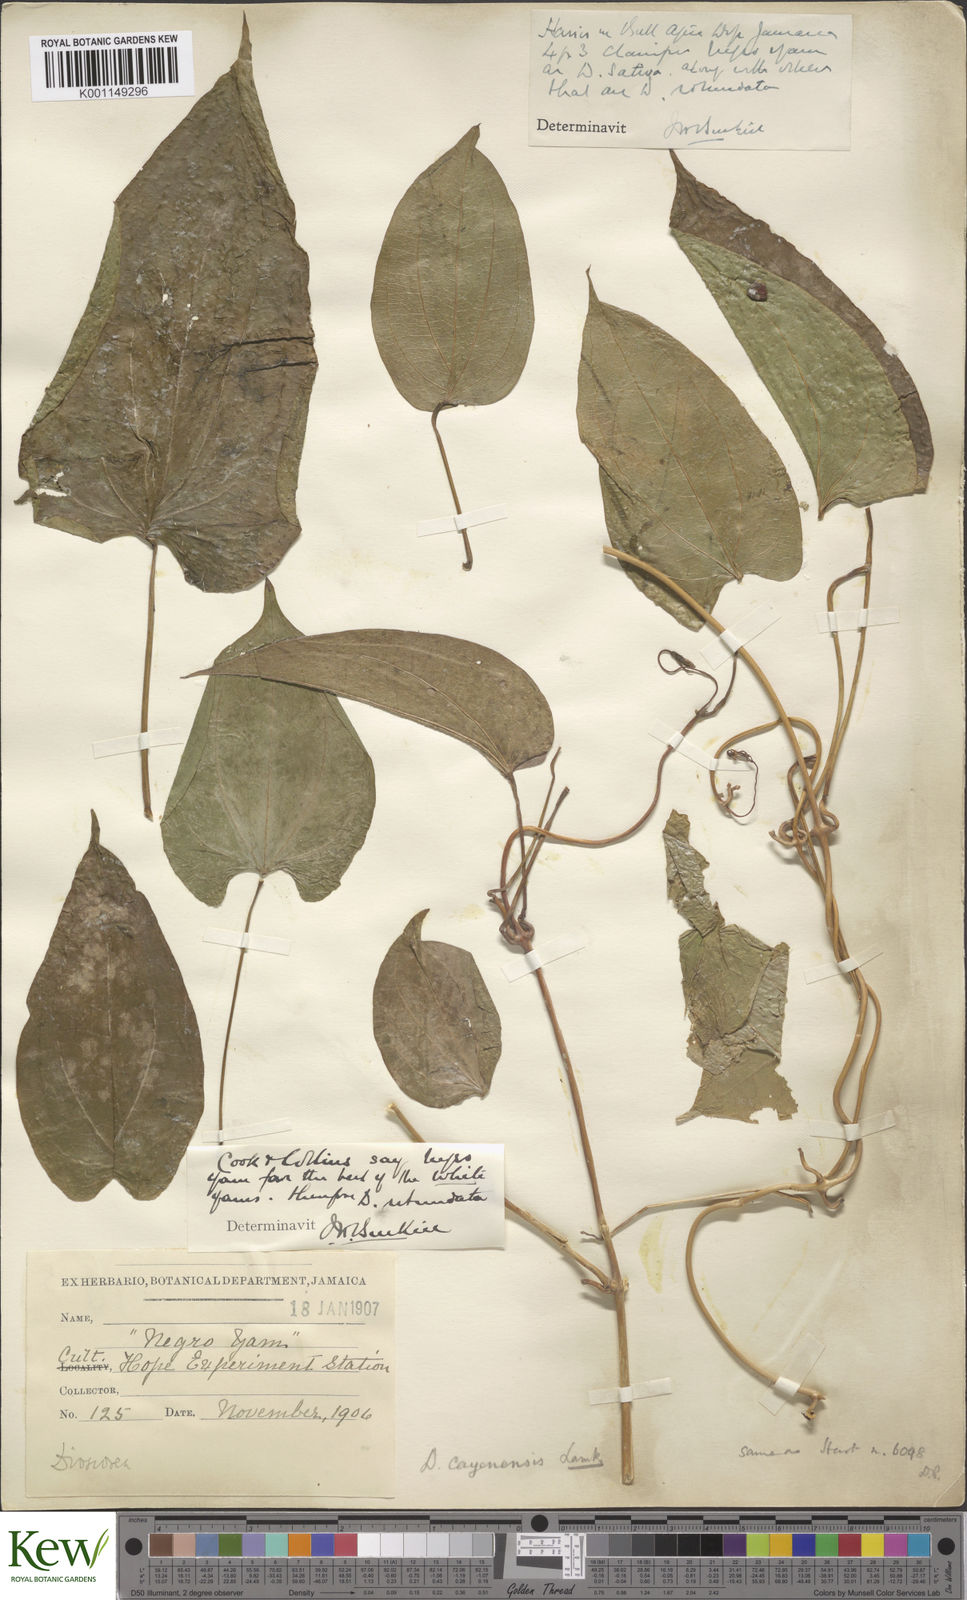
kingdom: Plantae
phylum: Tracheophyta
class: Liliopsida
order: Dioscoreales
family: Dioscoreaceae
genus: Dioscorea
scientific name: Dioscorea cayenensis
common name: Attoto yam
